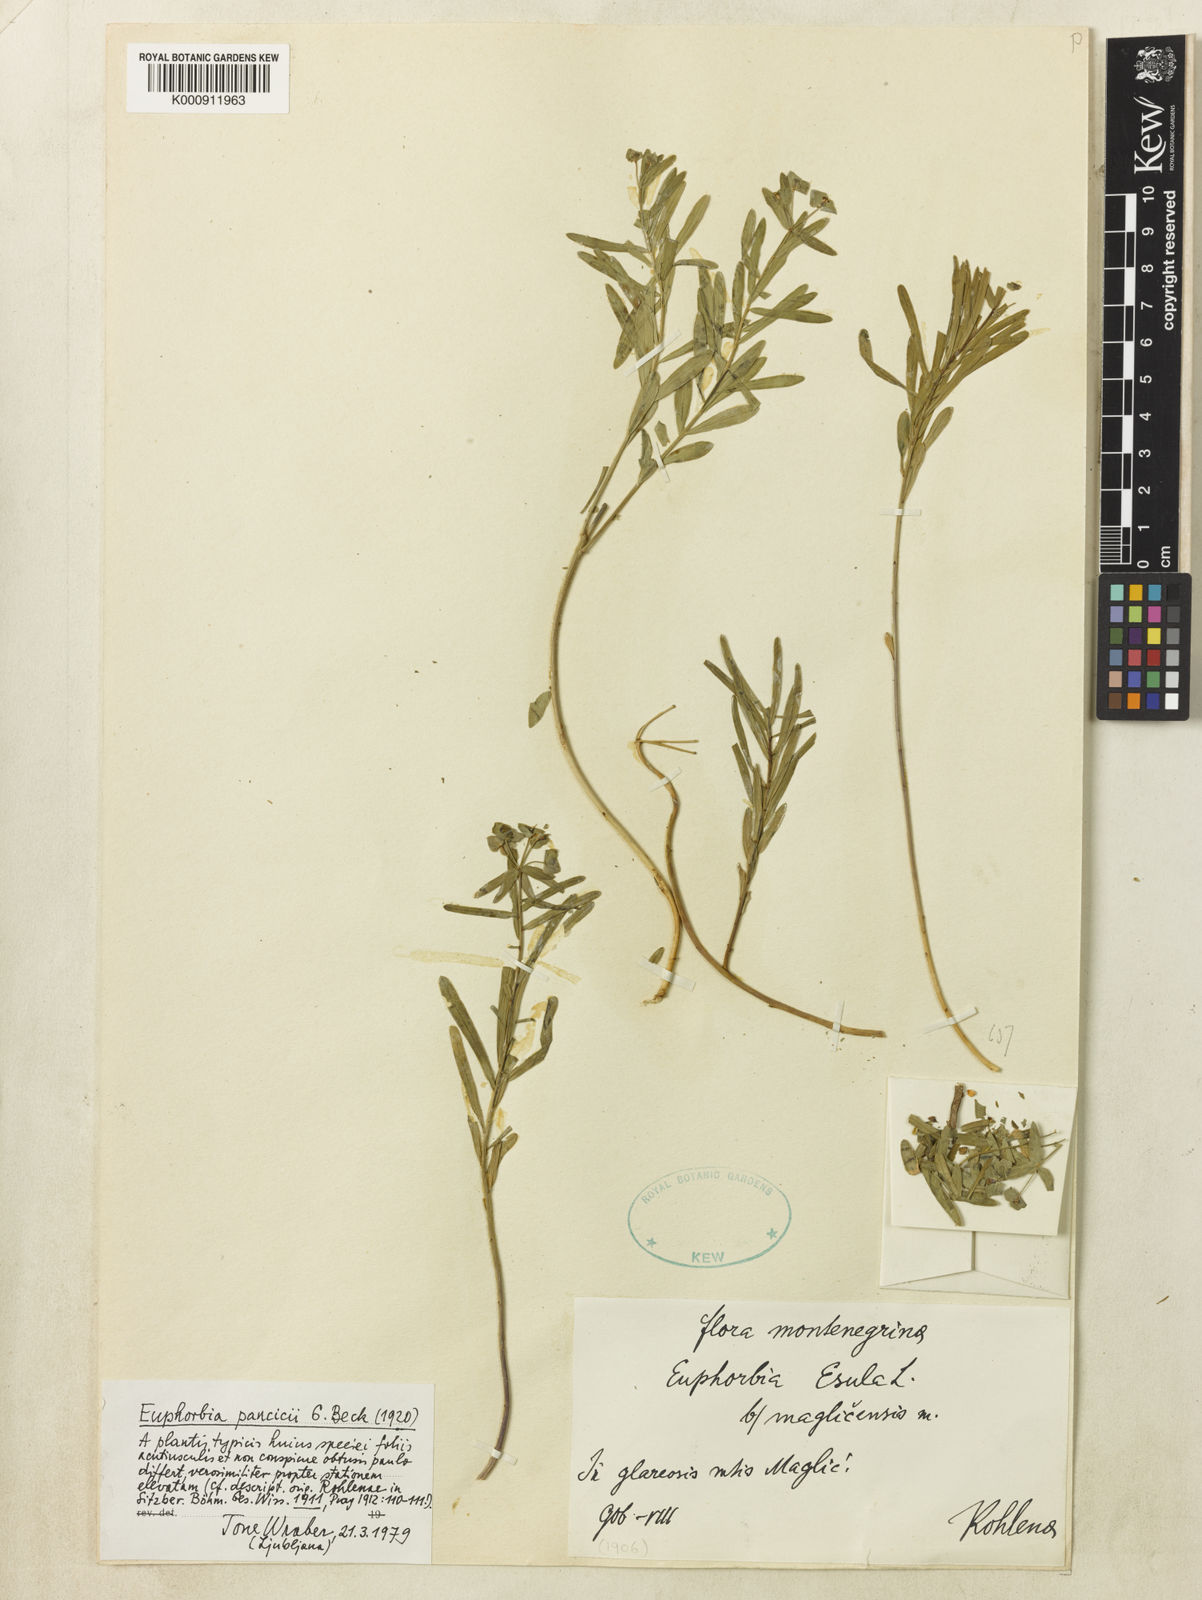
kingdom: Plantae
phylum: Tracheophyta
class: Magnoliopsida
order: Malpighiales
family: Euphorbiaceae
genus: Euphorbia
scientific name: Euphorbia esula
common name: Leafy spurge
